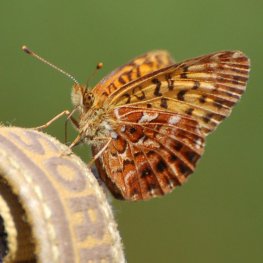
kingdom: Animalia
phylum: Arthropoda
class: Insecta
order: Lepidoptera
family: Nymphalidae
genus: Boloria
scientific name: Boloria chariclea
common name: Arctic Fritillary
